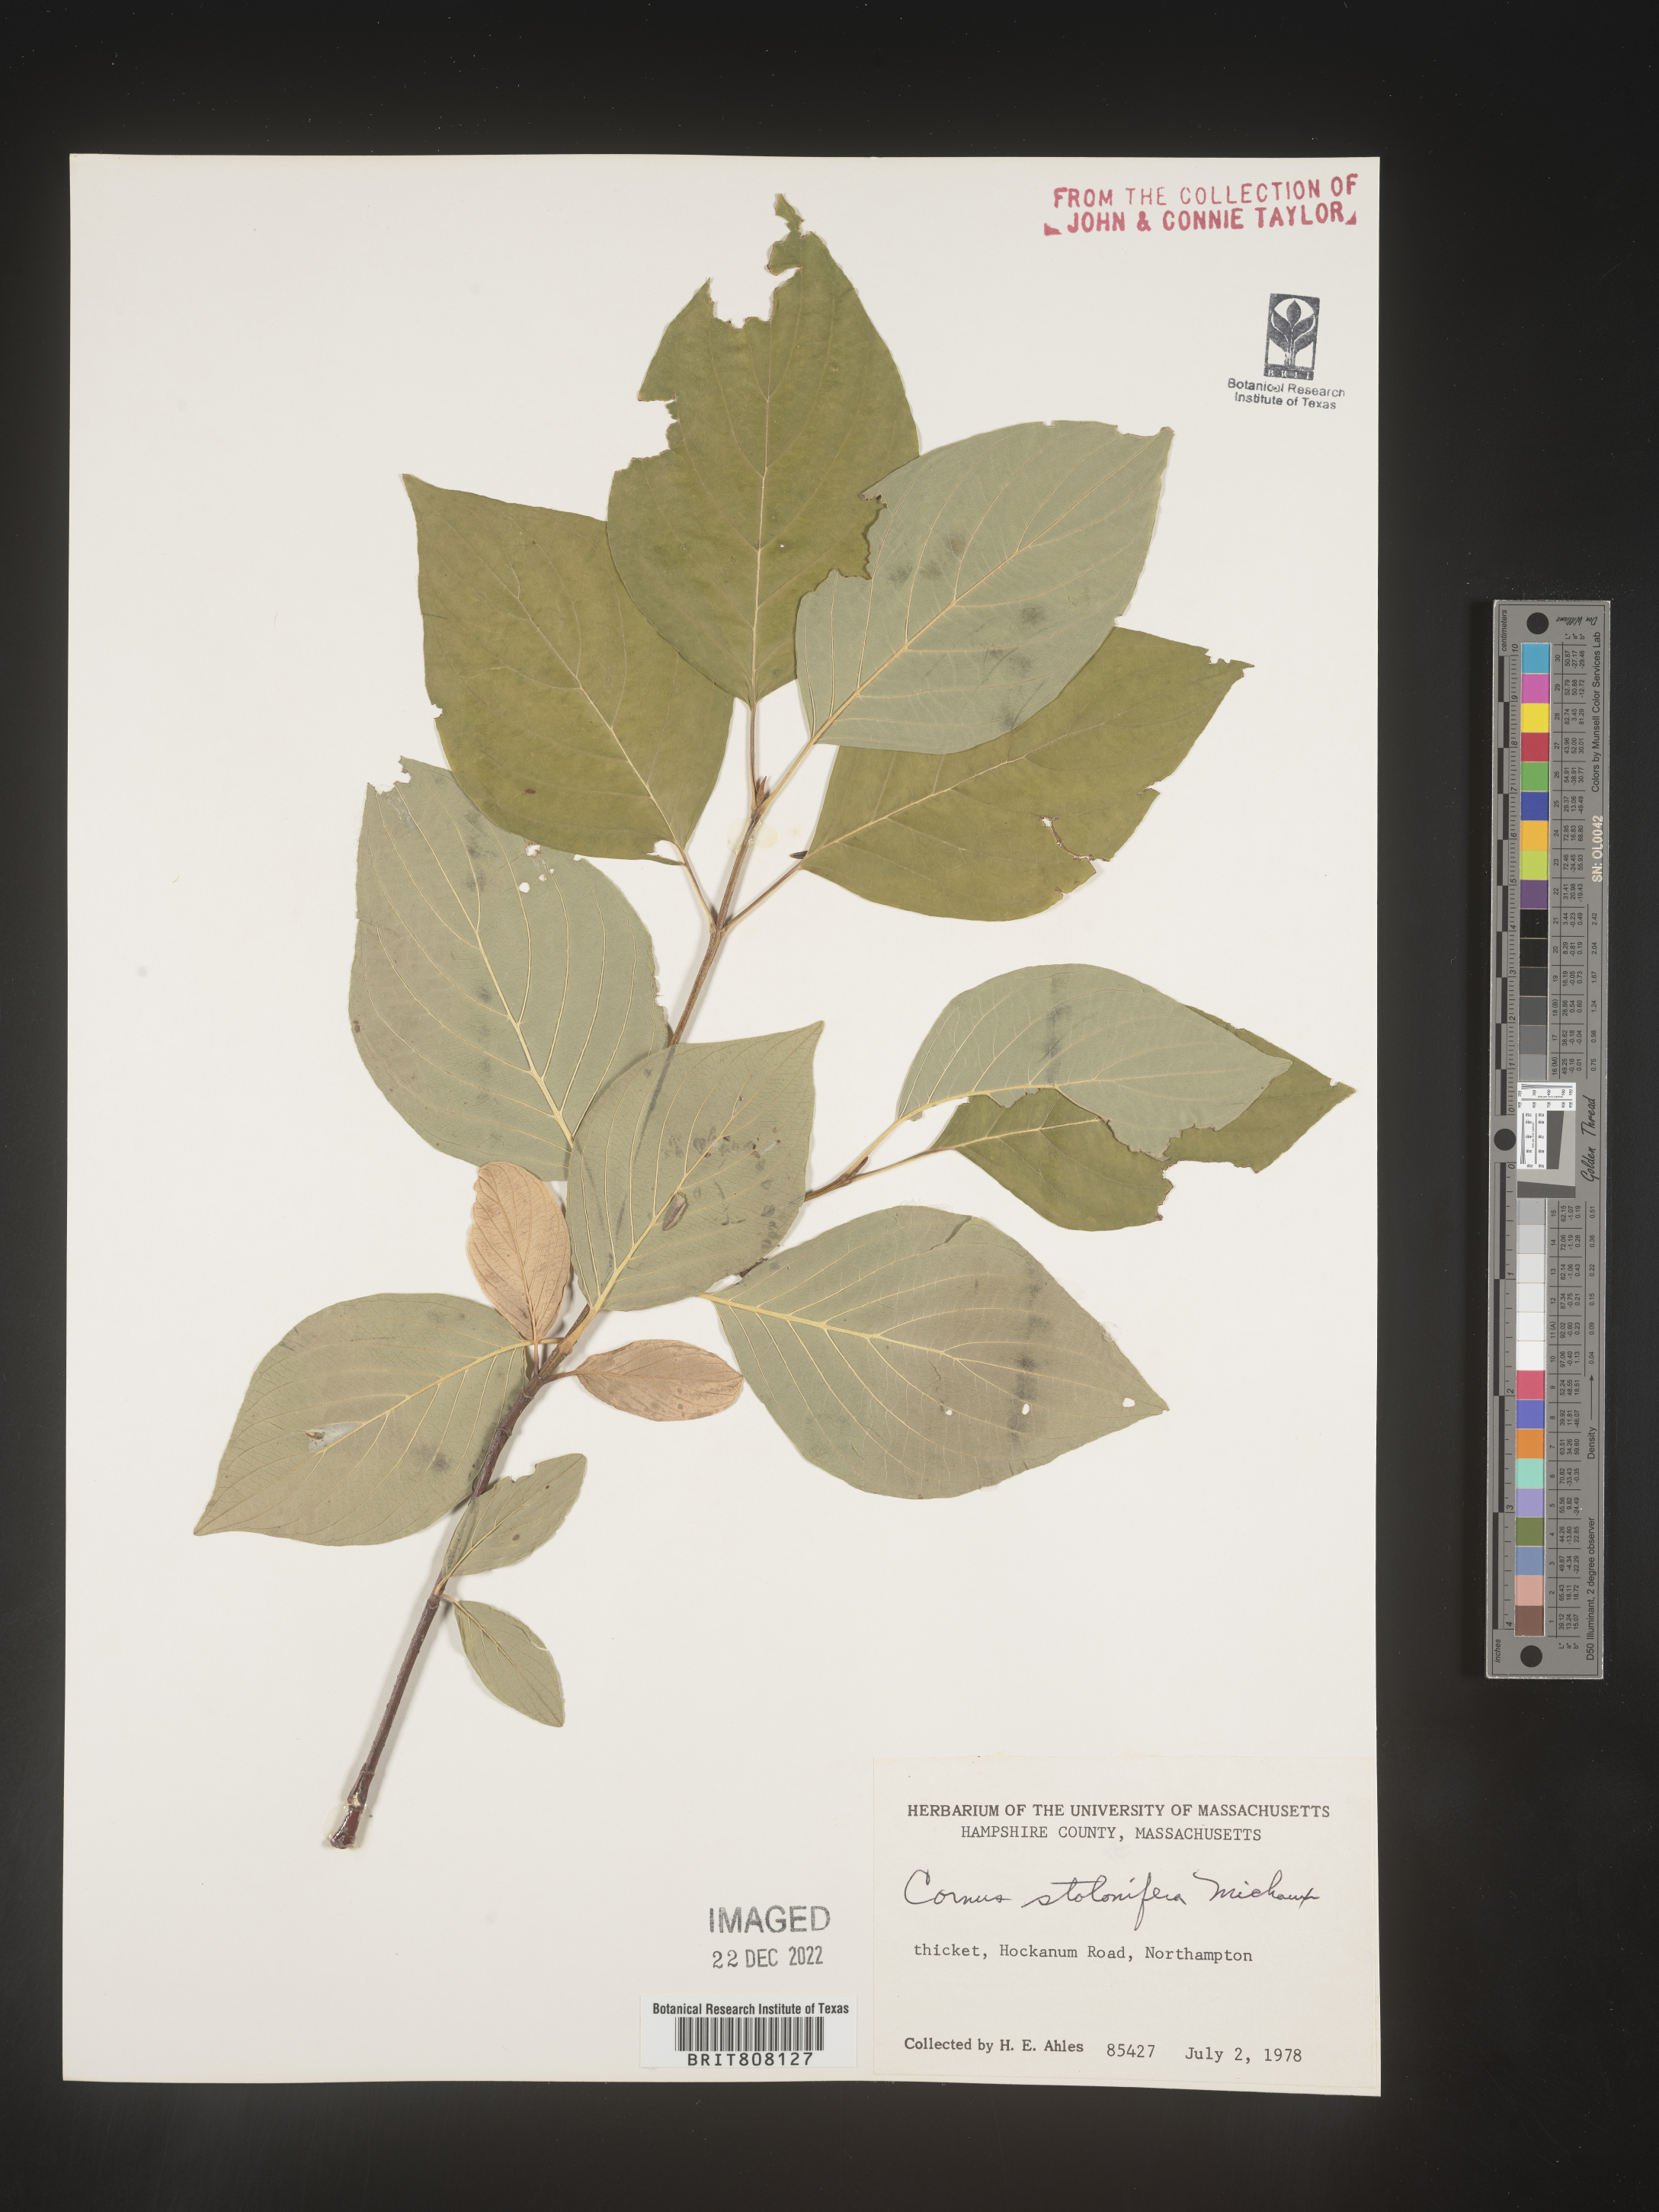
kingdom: Plantae
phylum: Tracheophyta
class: Magnoliopsida
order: Cornales
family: Cornaceae
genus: Cornus
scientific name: Cornus sericea
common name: Red-osier dogwood
